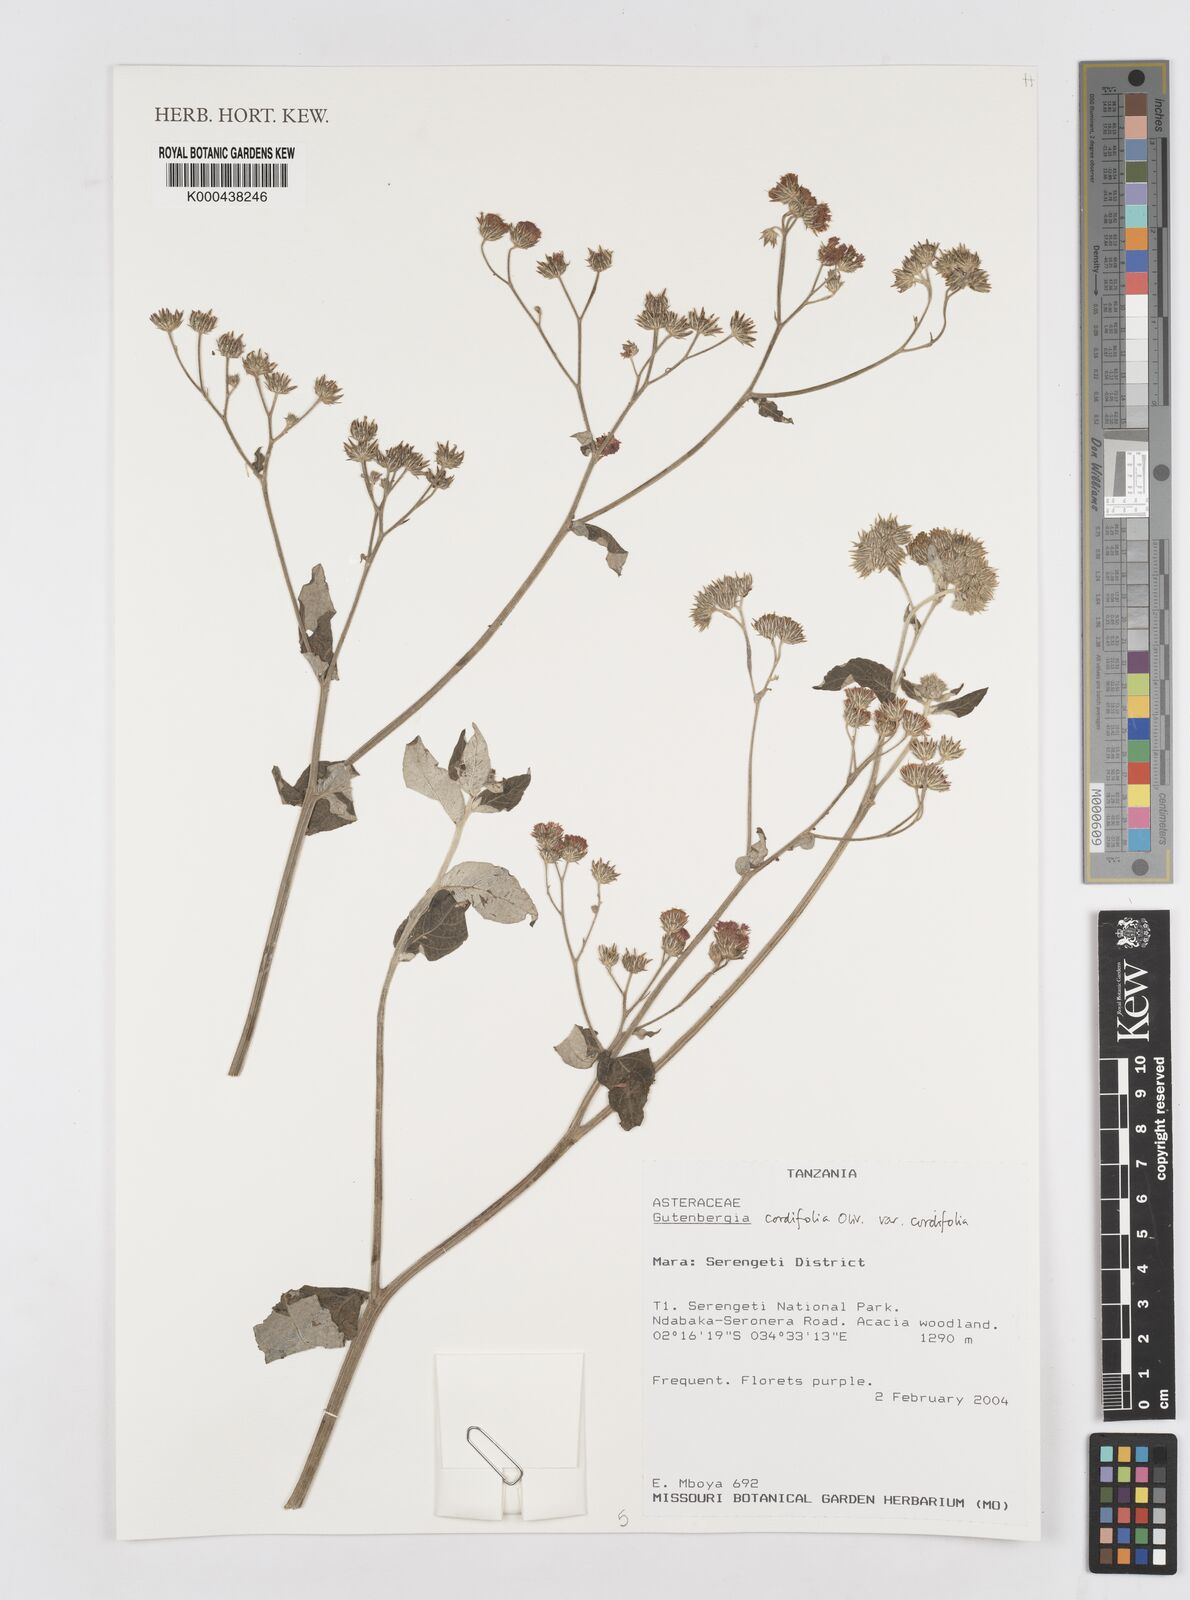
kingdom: Plantae
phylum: Tracheophyta
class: Magnoliopsida
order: Asterales
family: Asteraceae
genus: Gutenbergia
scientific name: Gutenbergia cordifolia
